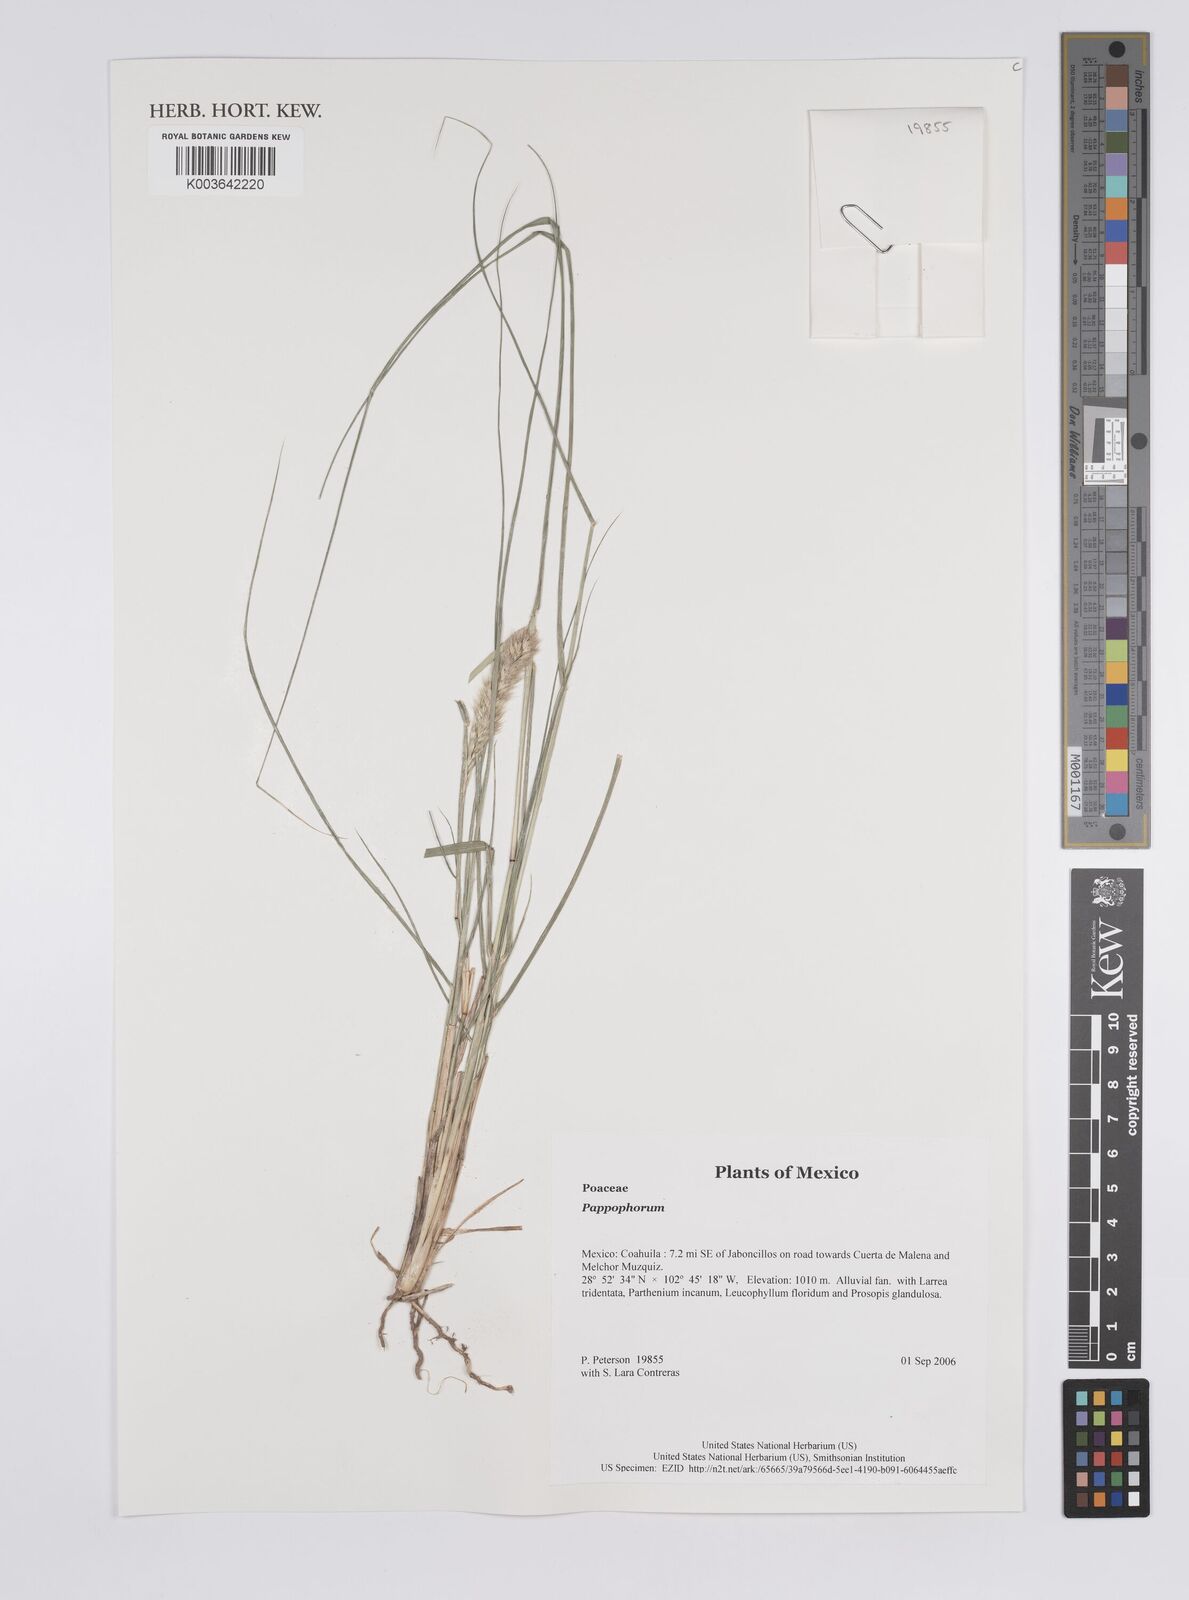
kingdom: Plantae
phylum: Tracheophyta
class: Liliopsida
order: Poales
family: Poaceae
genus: Pappophorum
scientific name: Pappophorum
